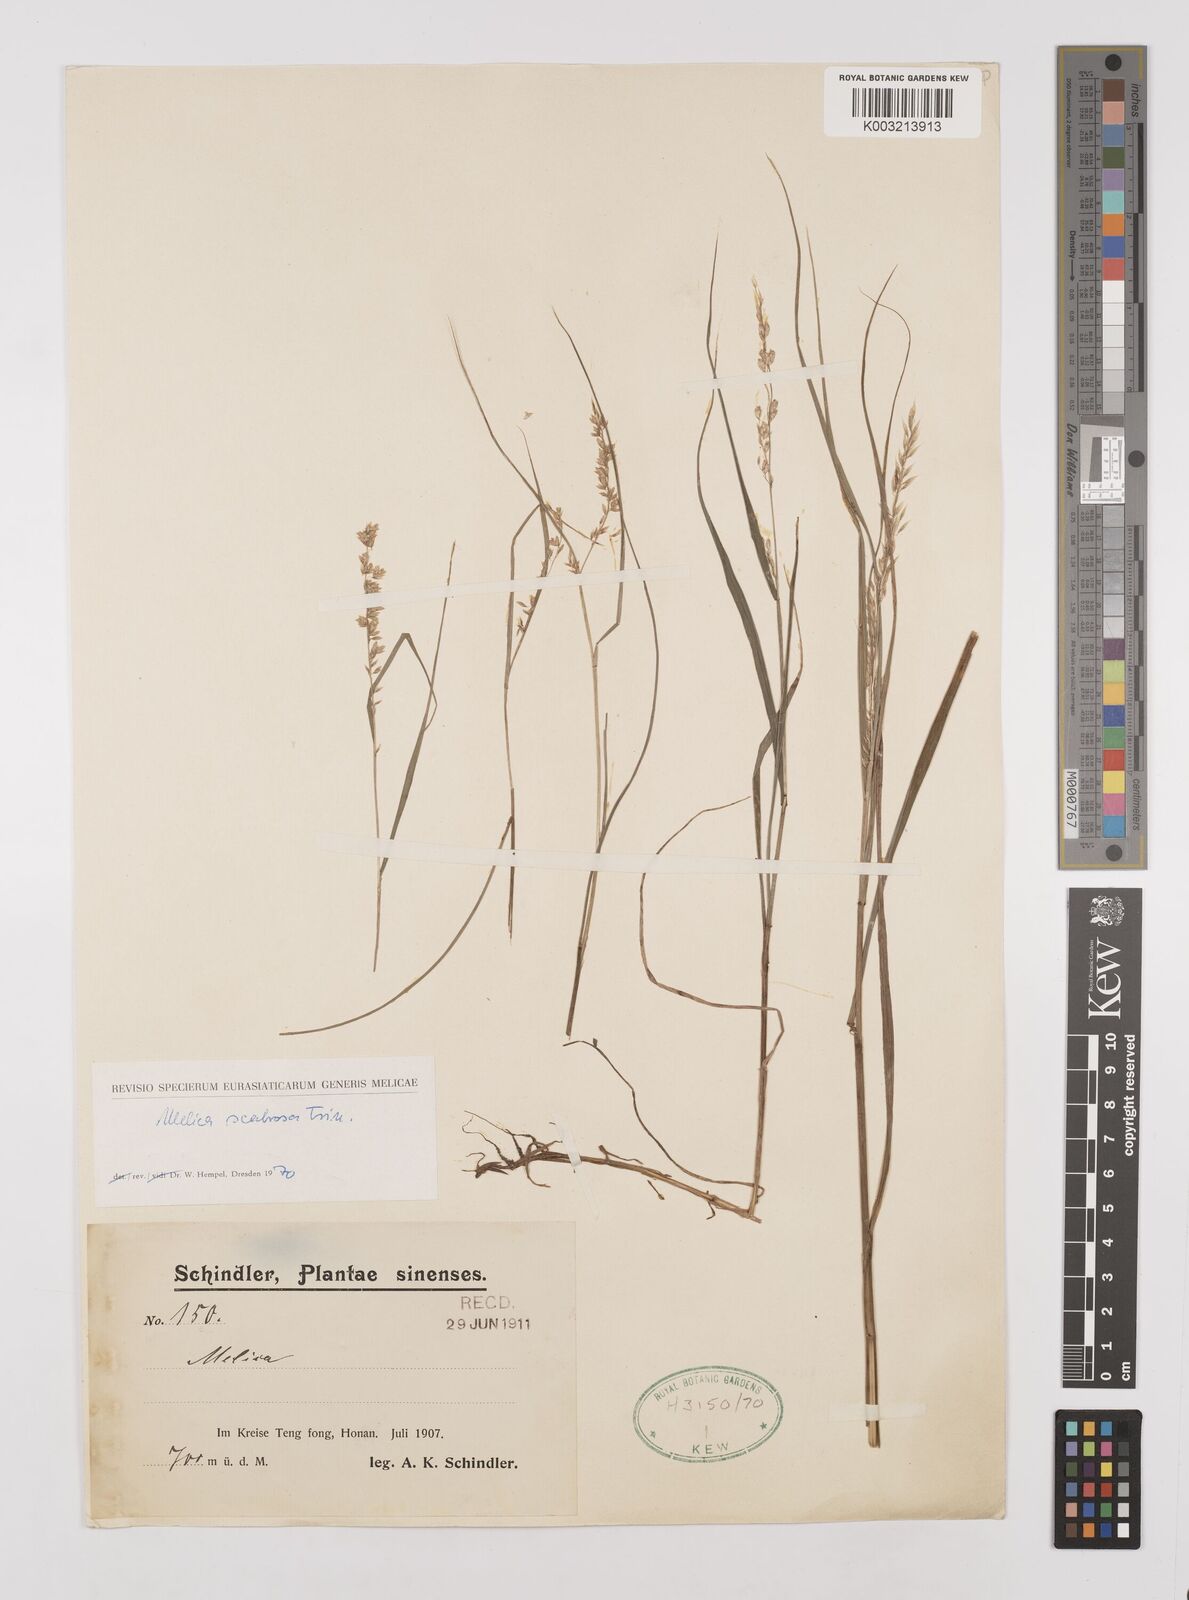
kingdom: Plantae
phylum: Tracheophyta
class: Liliopsida
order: Poales
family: Poaceae
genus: Melica
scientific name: Melica scabrosa
